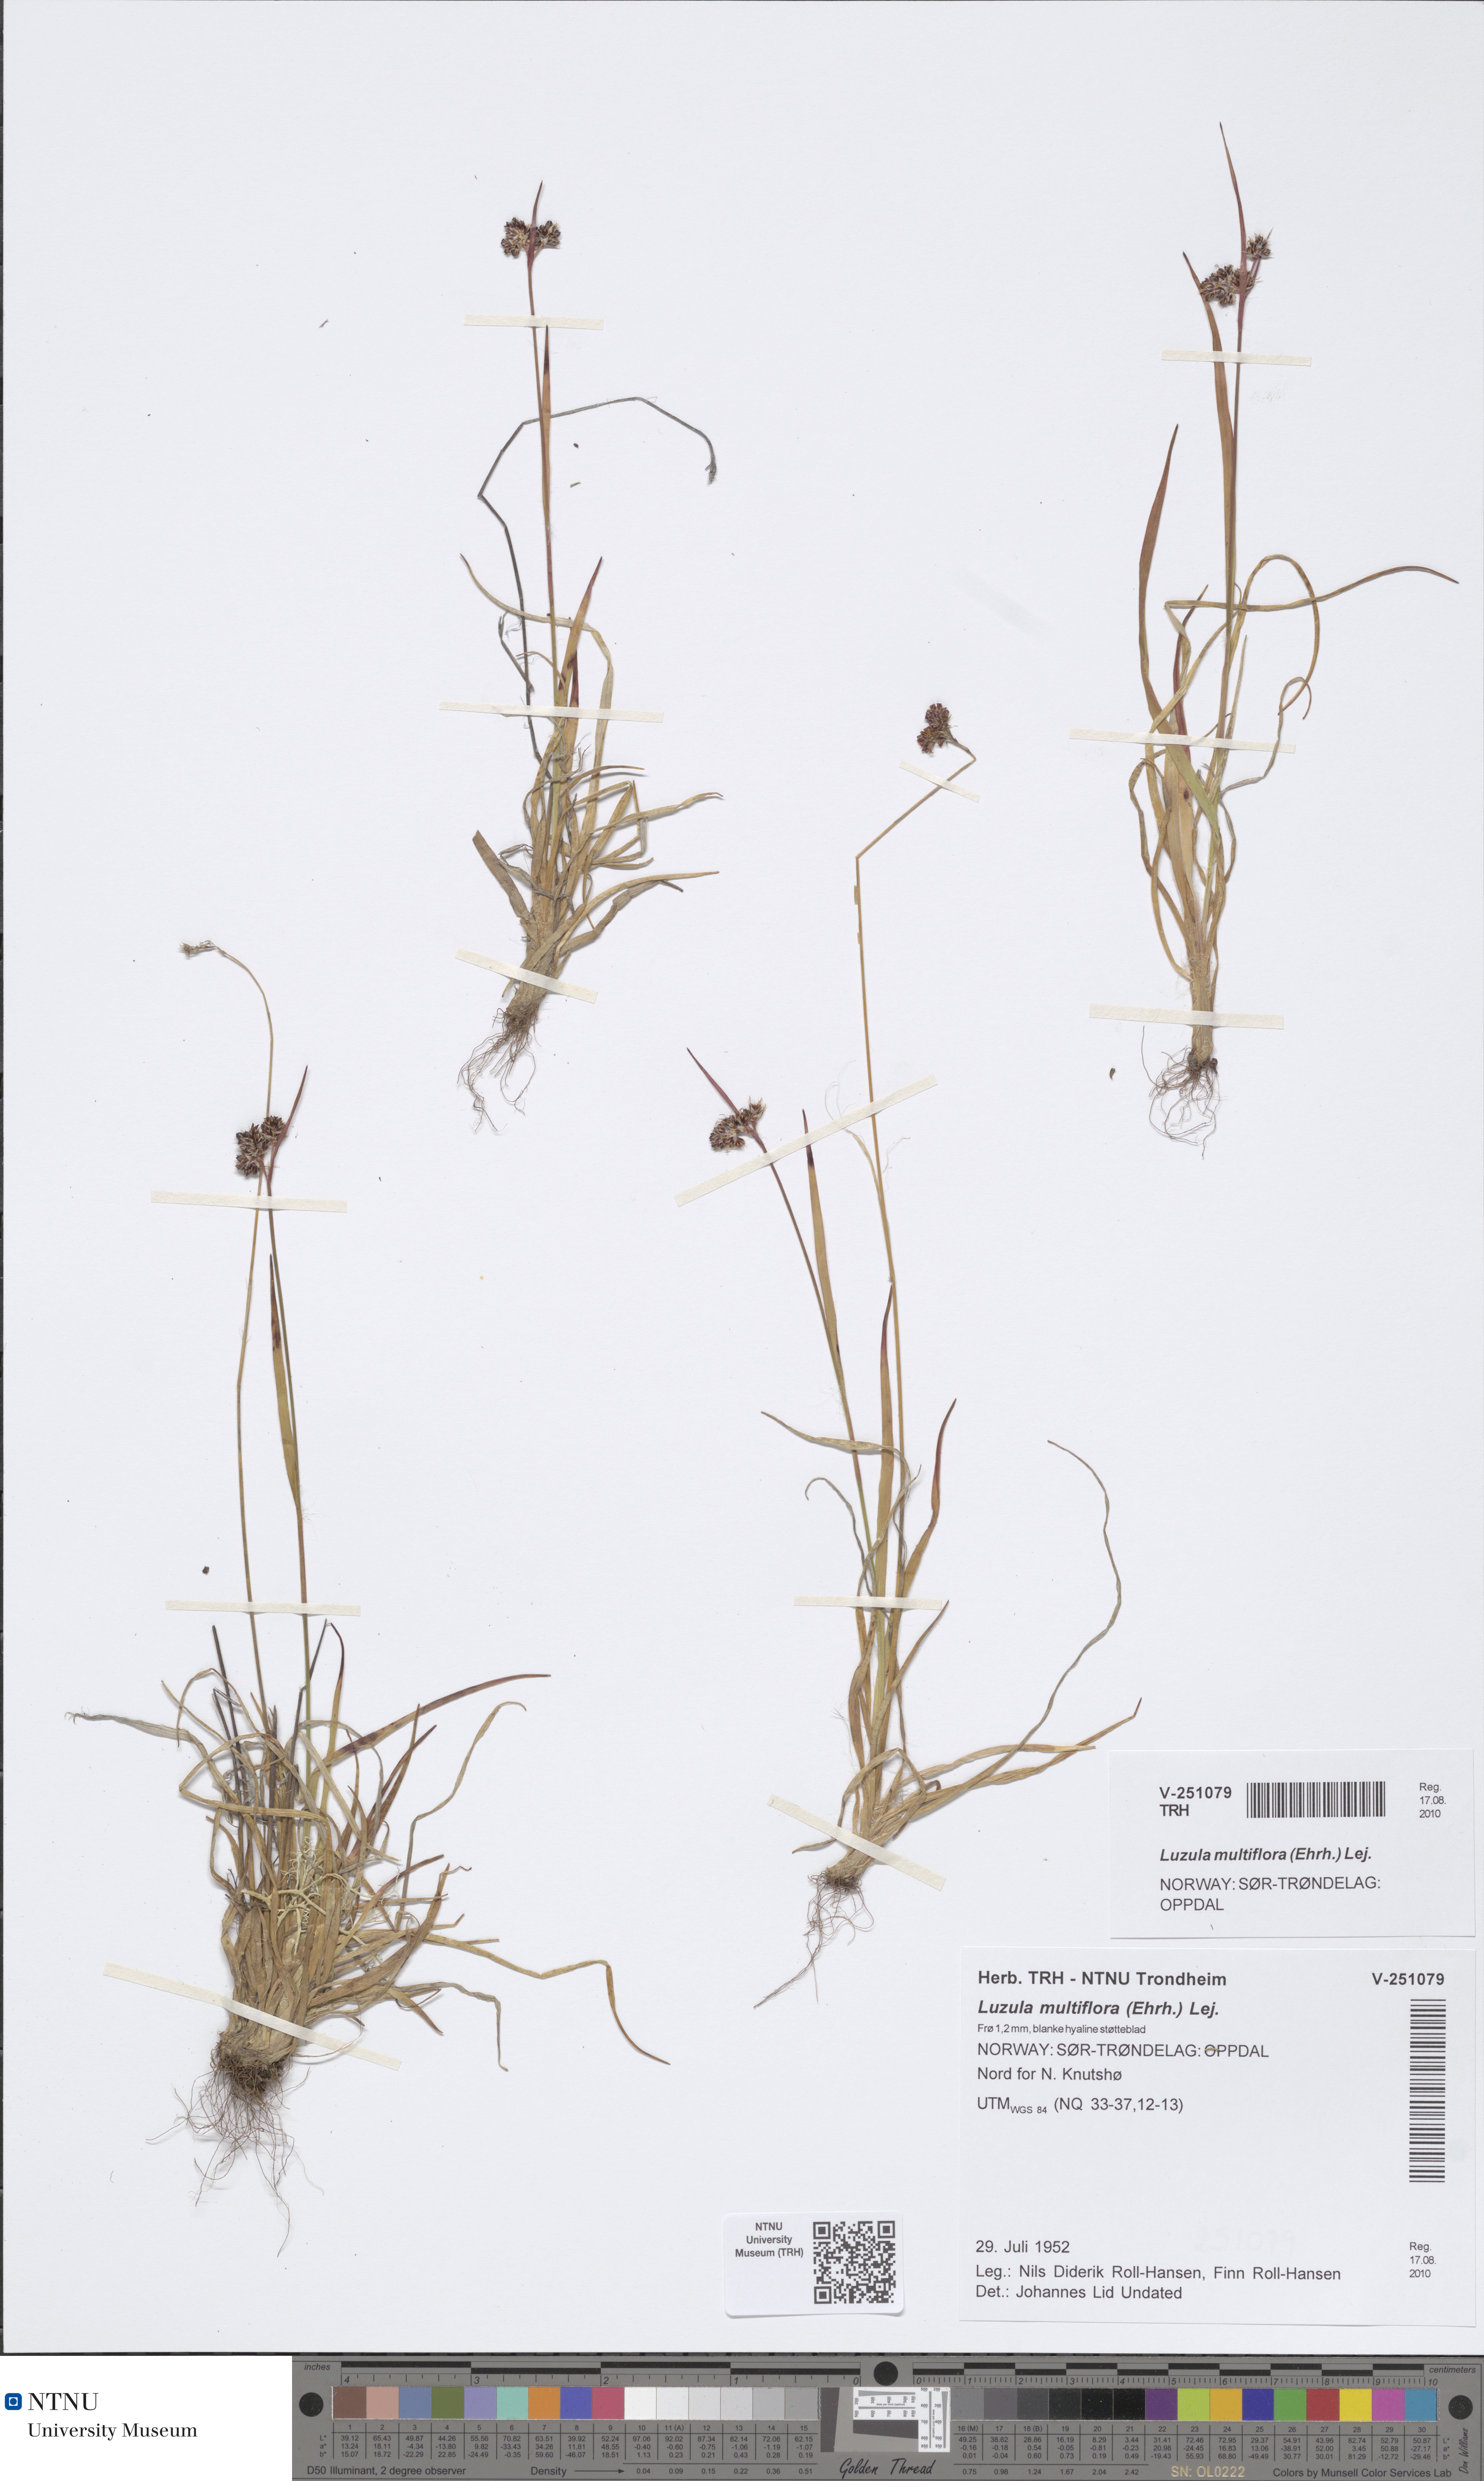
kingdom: Plantae
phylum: Tracheophyta
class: Liliopsida
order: Poales
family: Juncaceae
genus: Luzula
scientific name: Luzula multiflora
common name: Heath wood-rush
